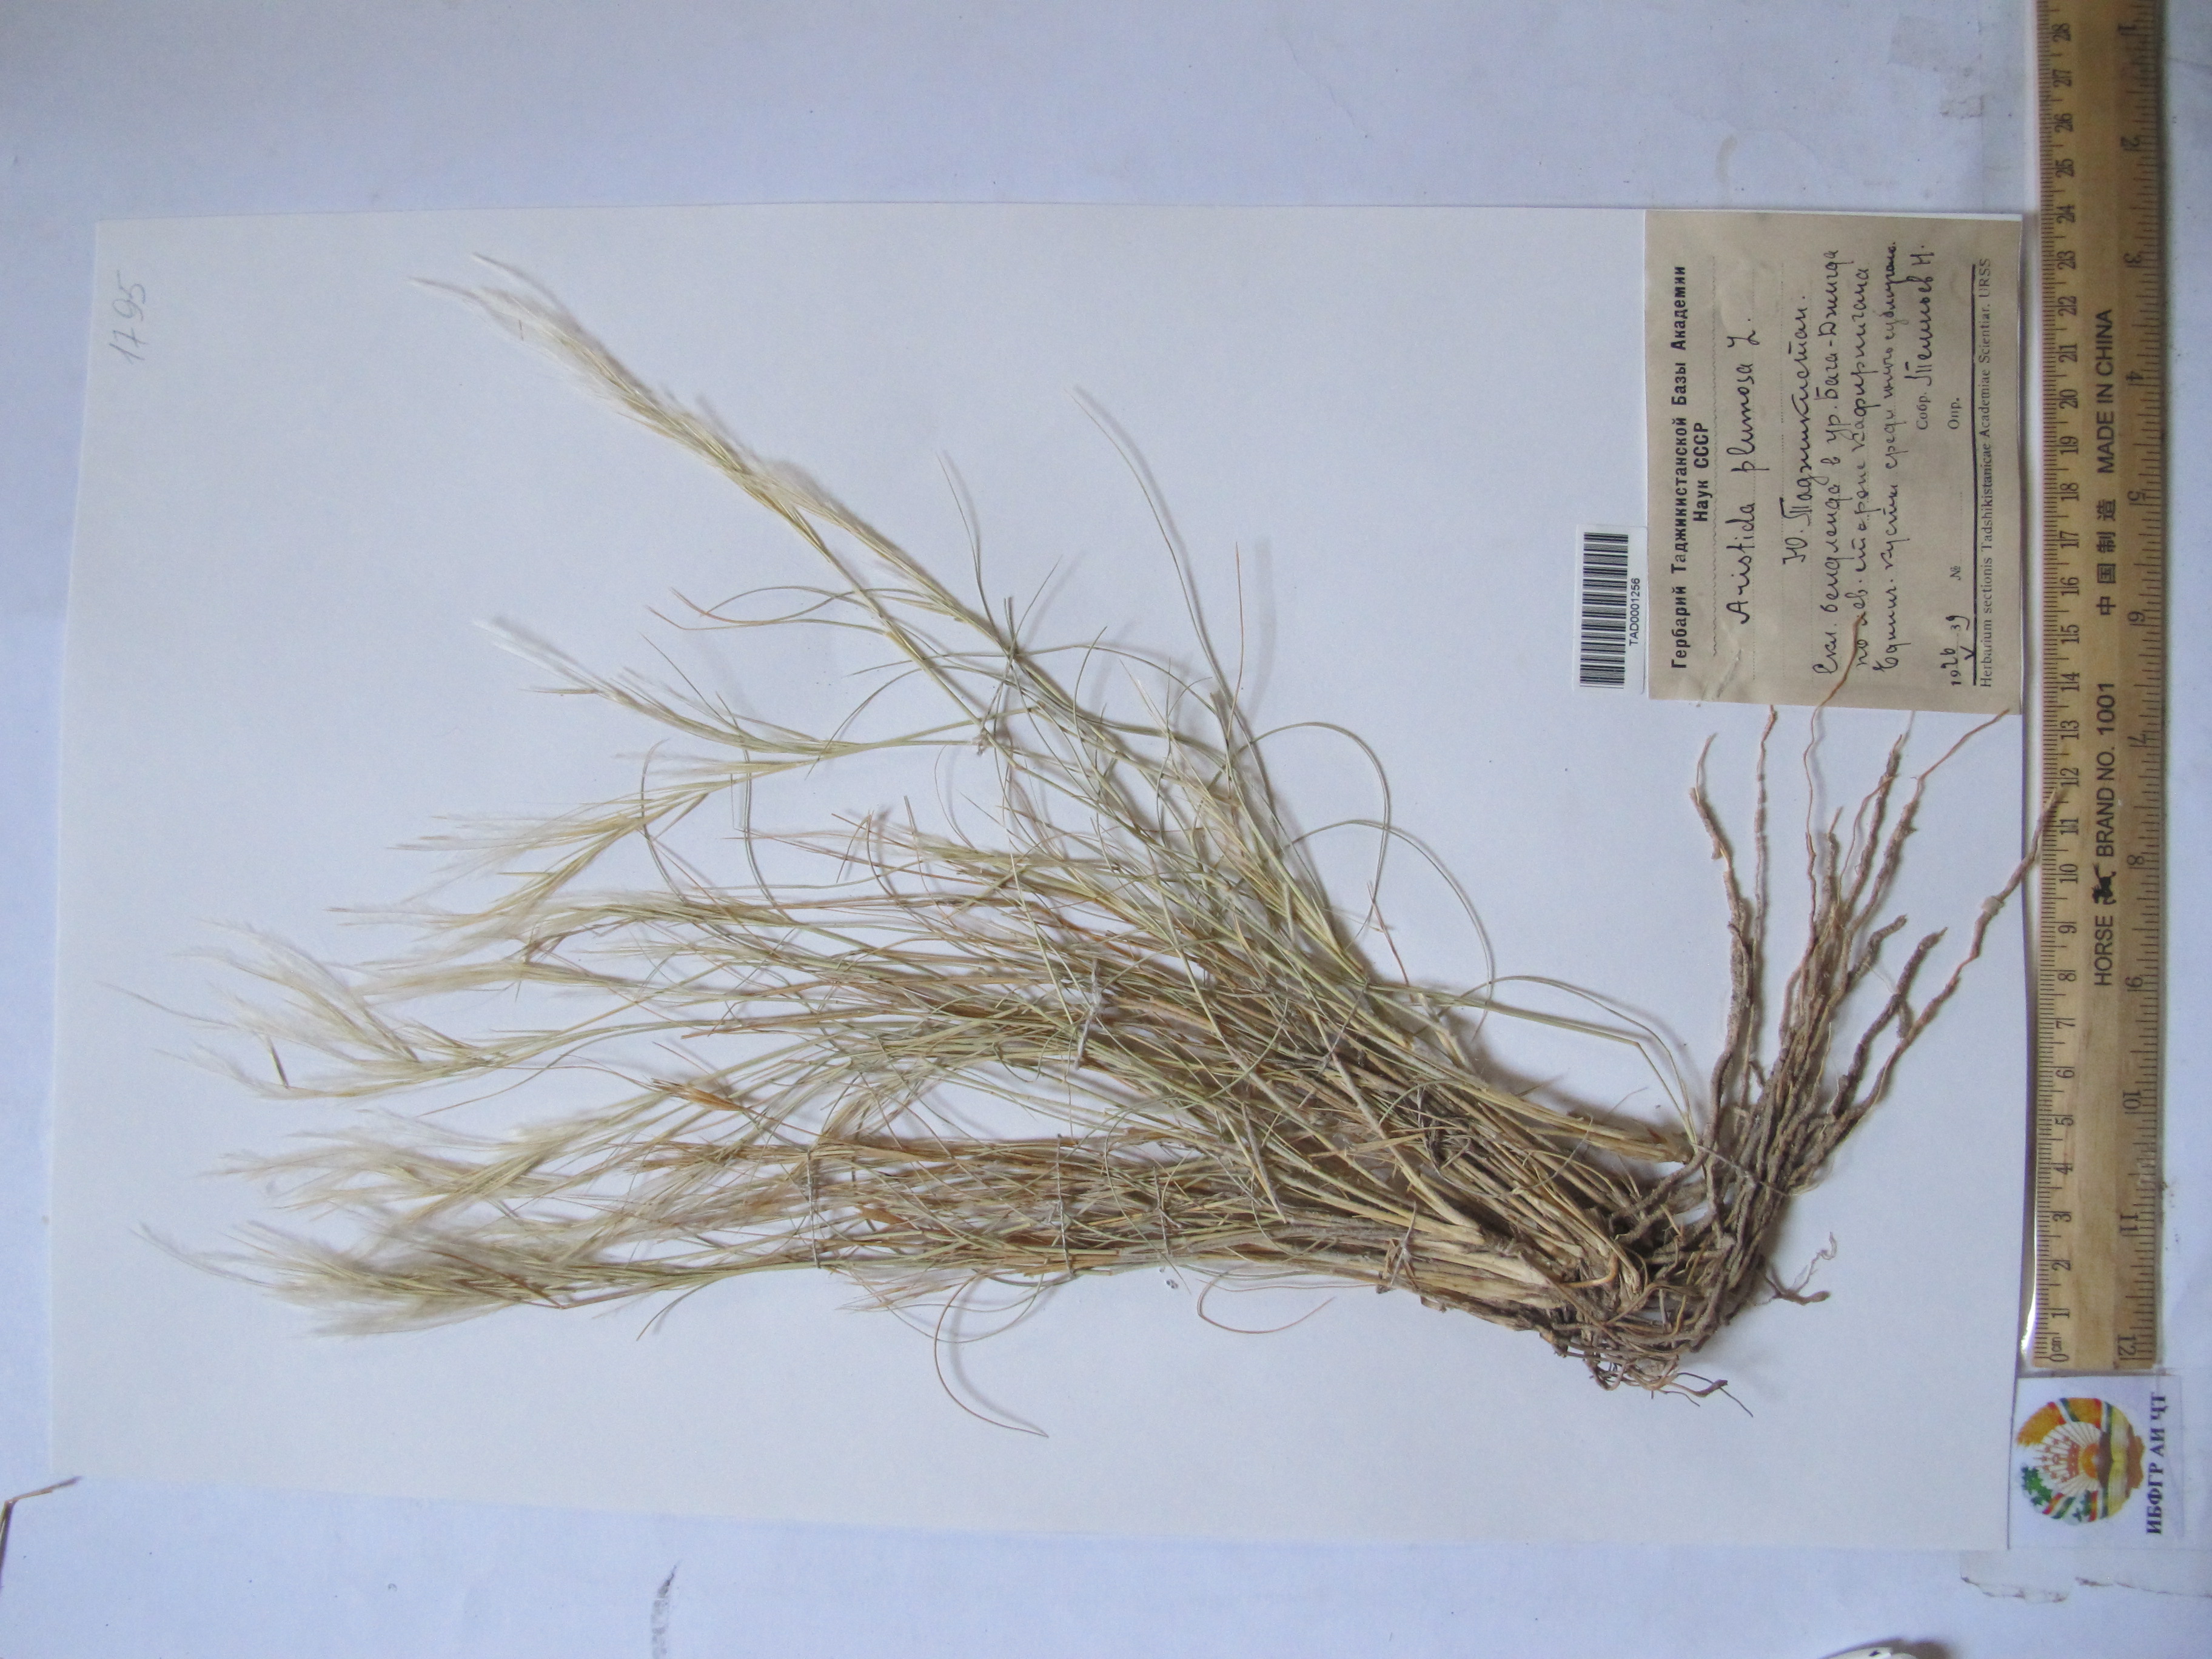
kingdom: Plantae
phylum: Tracheophyta
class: Liliopsida
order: Poales
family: Poaceae
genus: Stipagrostis
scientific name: Stipagrostis plumosa
